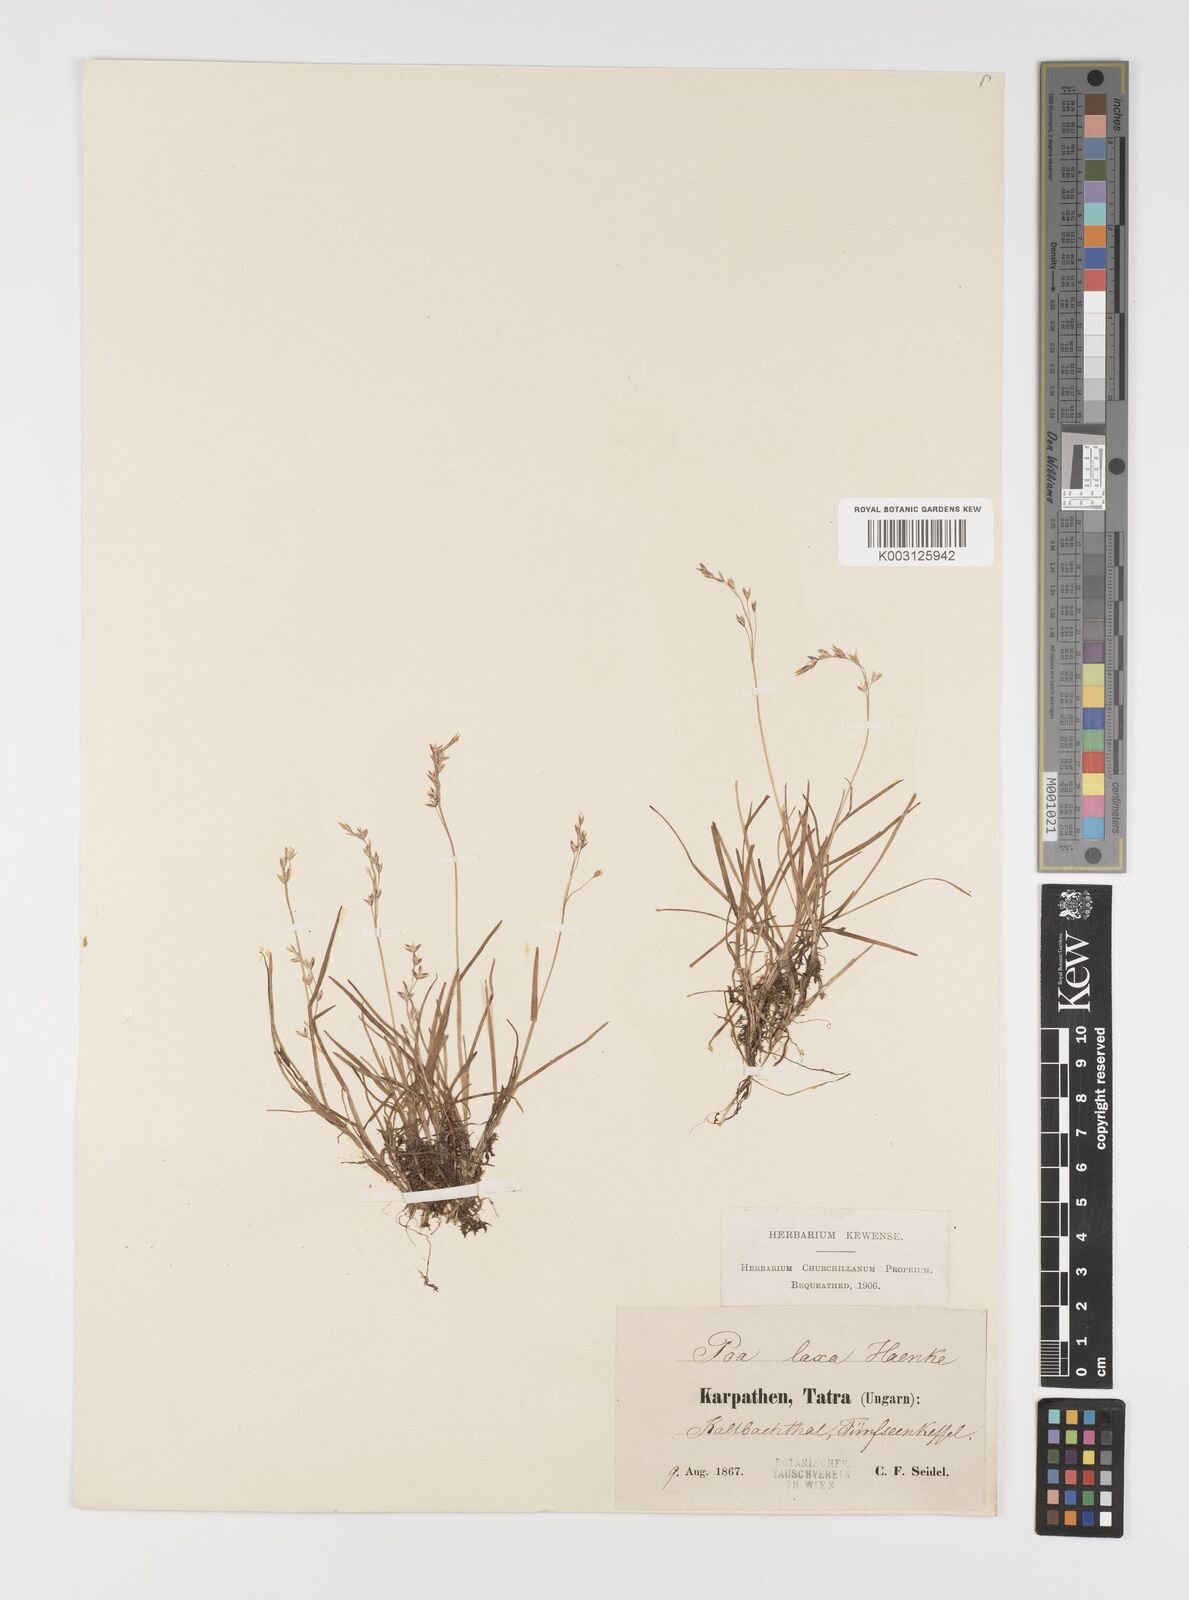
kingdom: Plantae
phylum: Tracheophyta
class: Liliopsida
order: Poales
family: Poaceae
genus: Poa
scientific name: Poa laxa
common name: Lax bluegrass
